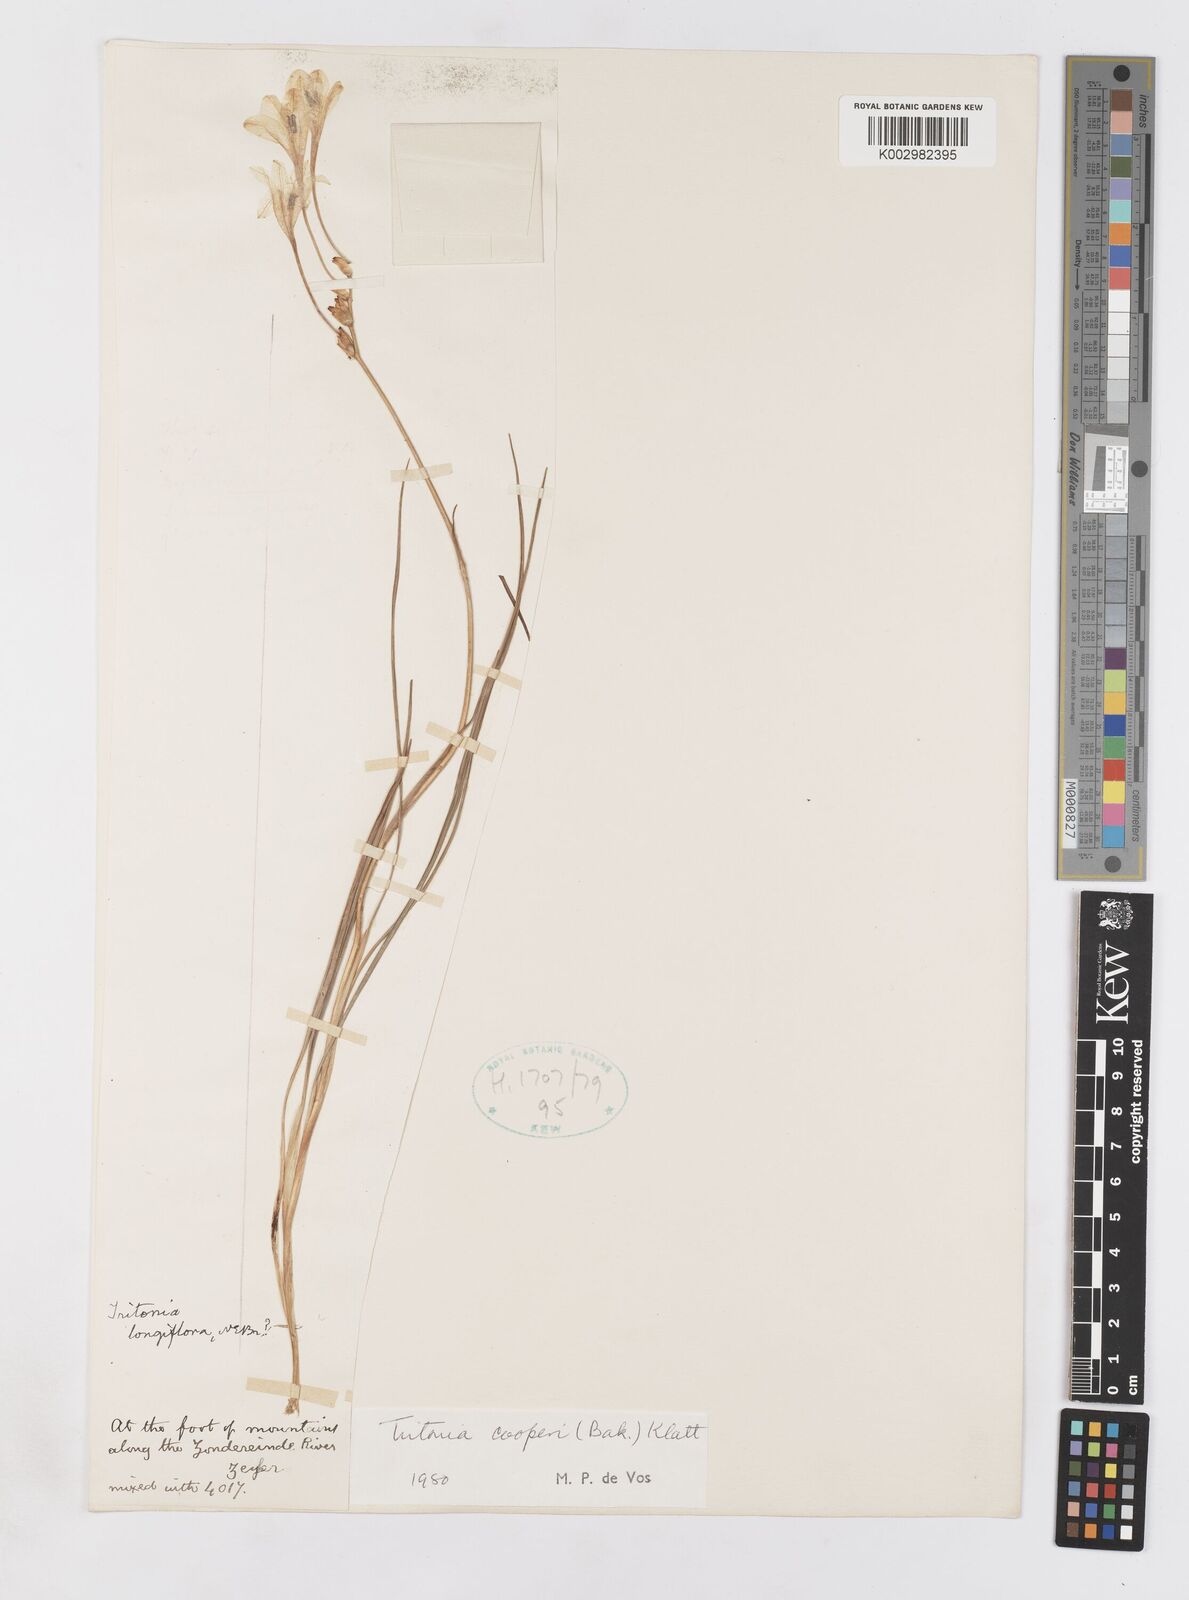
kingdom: Plantae
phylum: Tracheophyta
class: Liliopsida
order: Asparagales
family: Iridaceae
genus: Tritonia
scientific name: Tritonia cooperi
